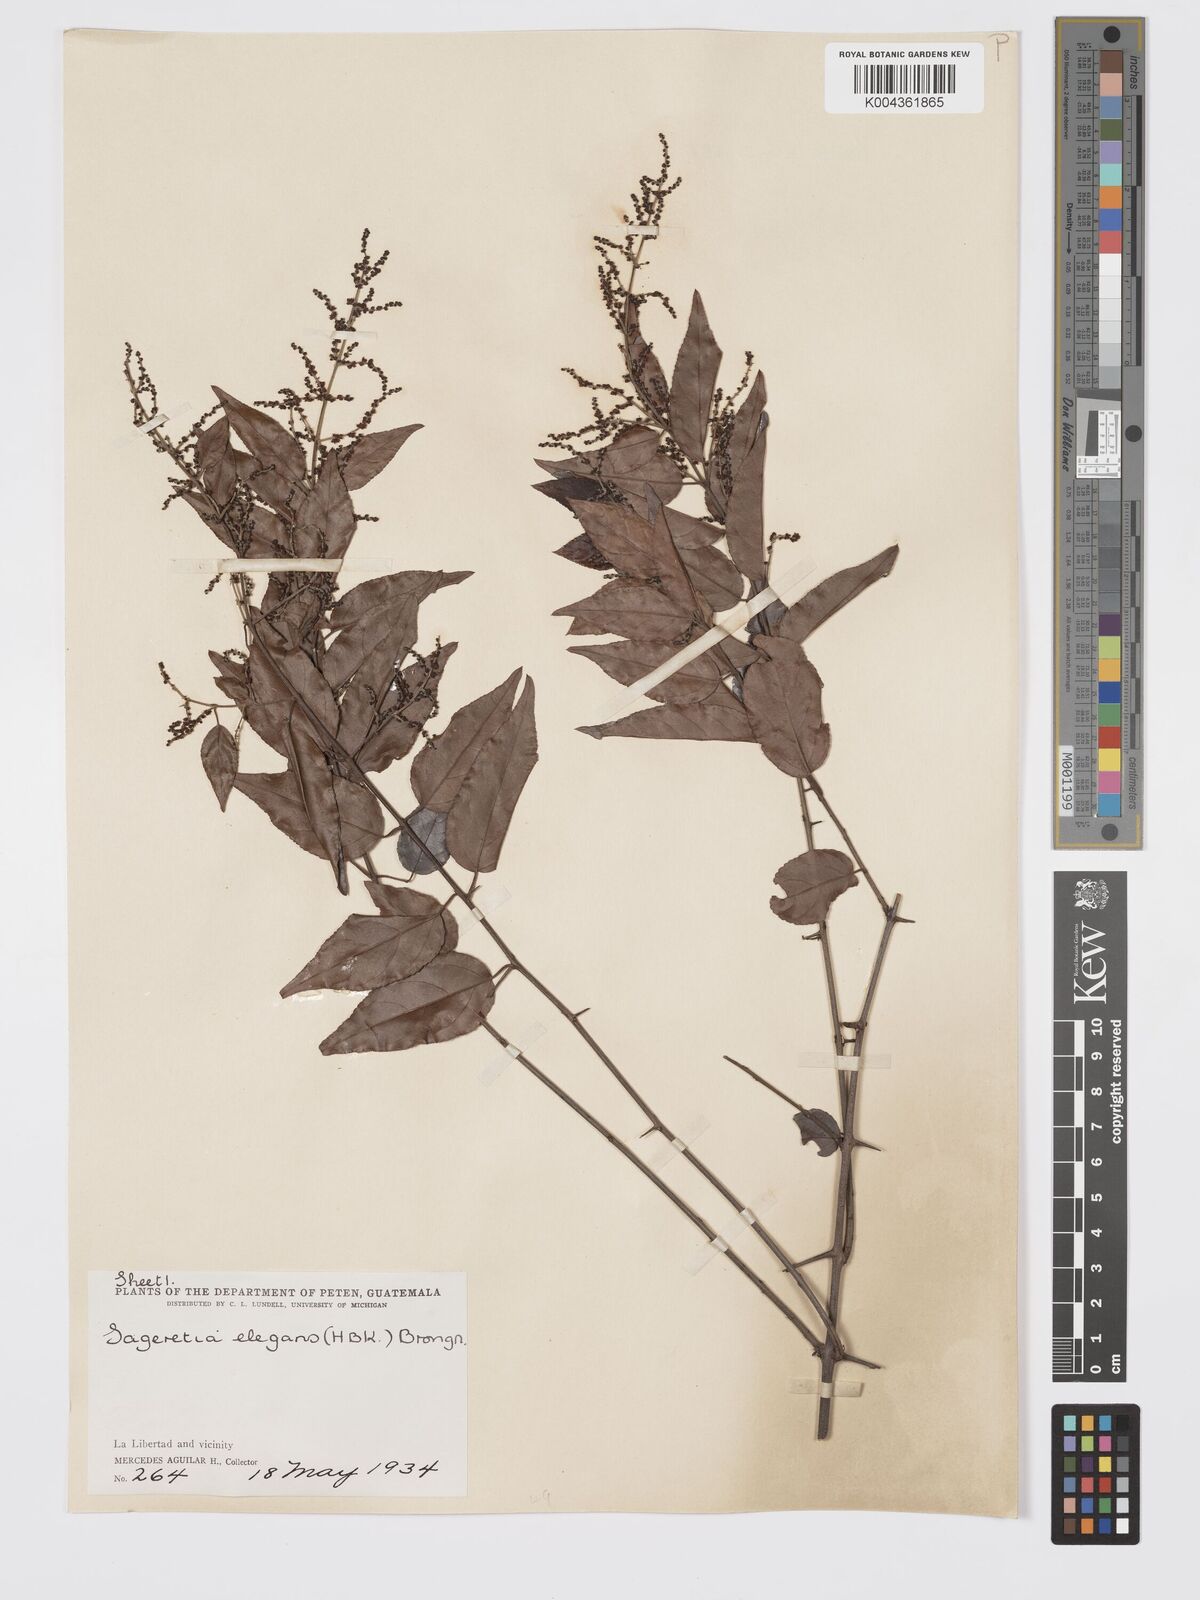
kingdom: Plantae
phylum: Tracheophyta
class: Magnoliopsida
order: Rosales
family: Rhamnaceae
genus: Sageretia
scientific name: Sageretia elegans
